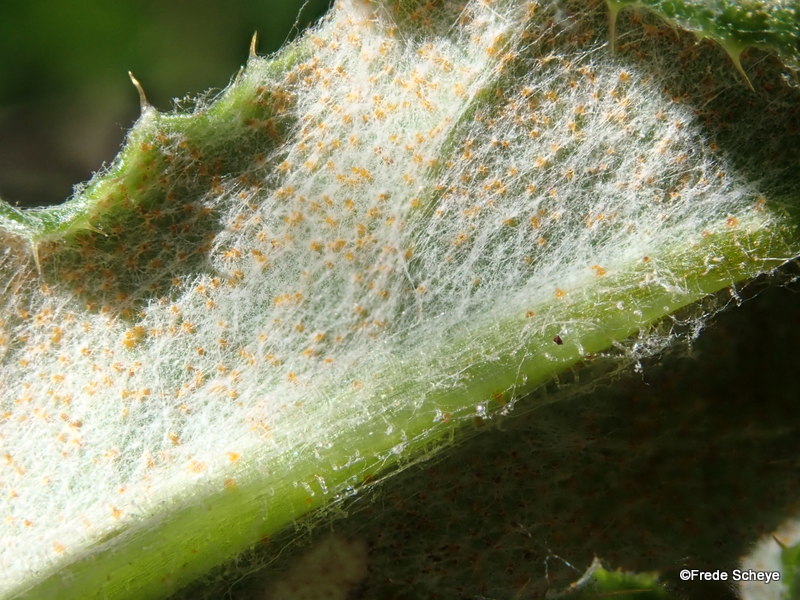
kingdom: Fungi
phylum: Basidiomycota
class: Pucciniomycetes
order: Pucciniales
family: Pucciniaceae
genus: Puccinia
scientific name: Puccinia suaveolens
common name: tidsel-tvecellerust
